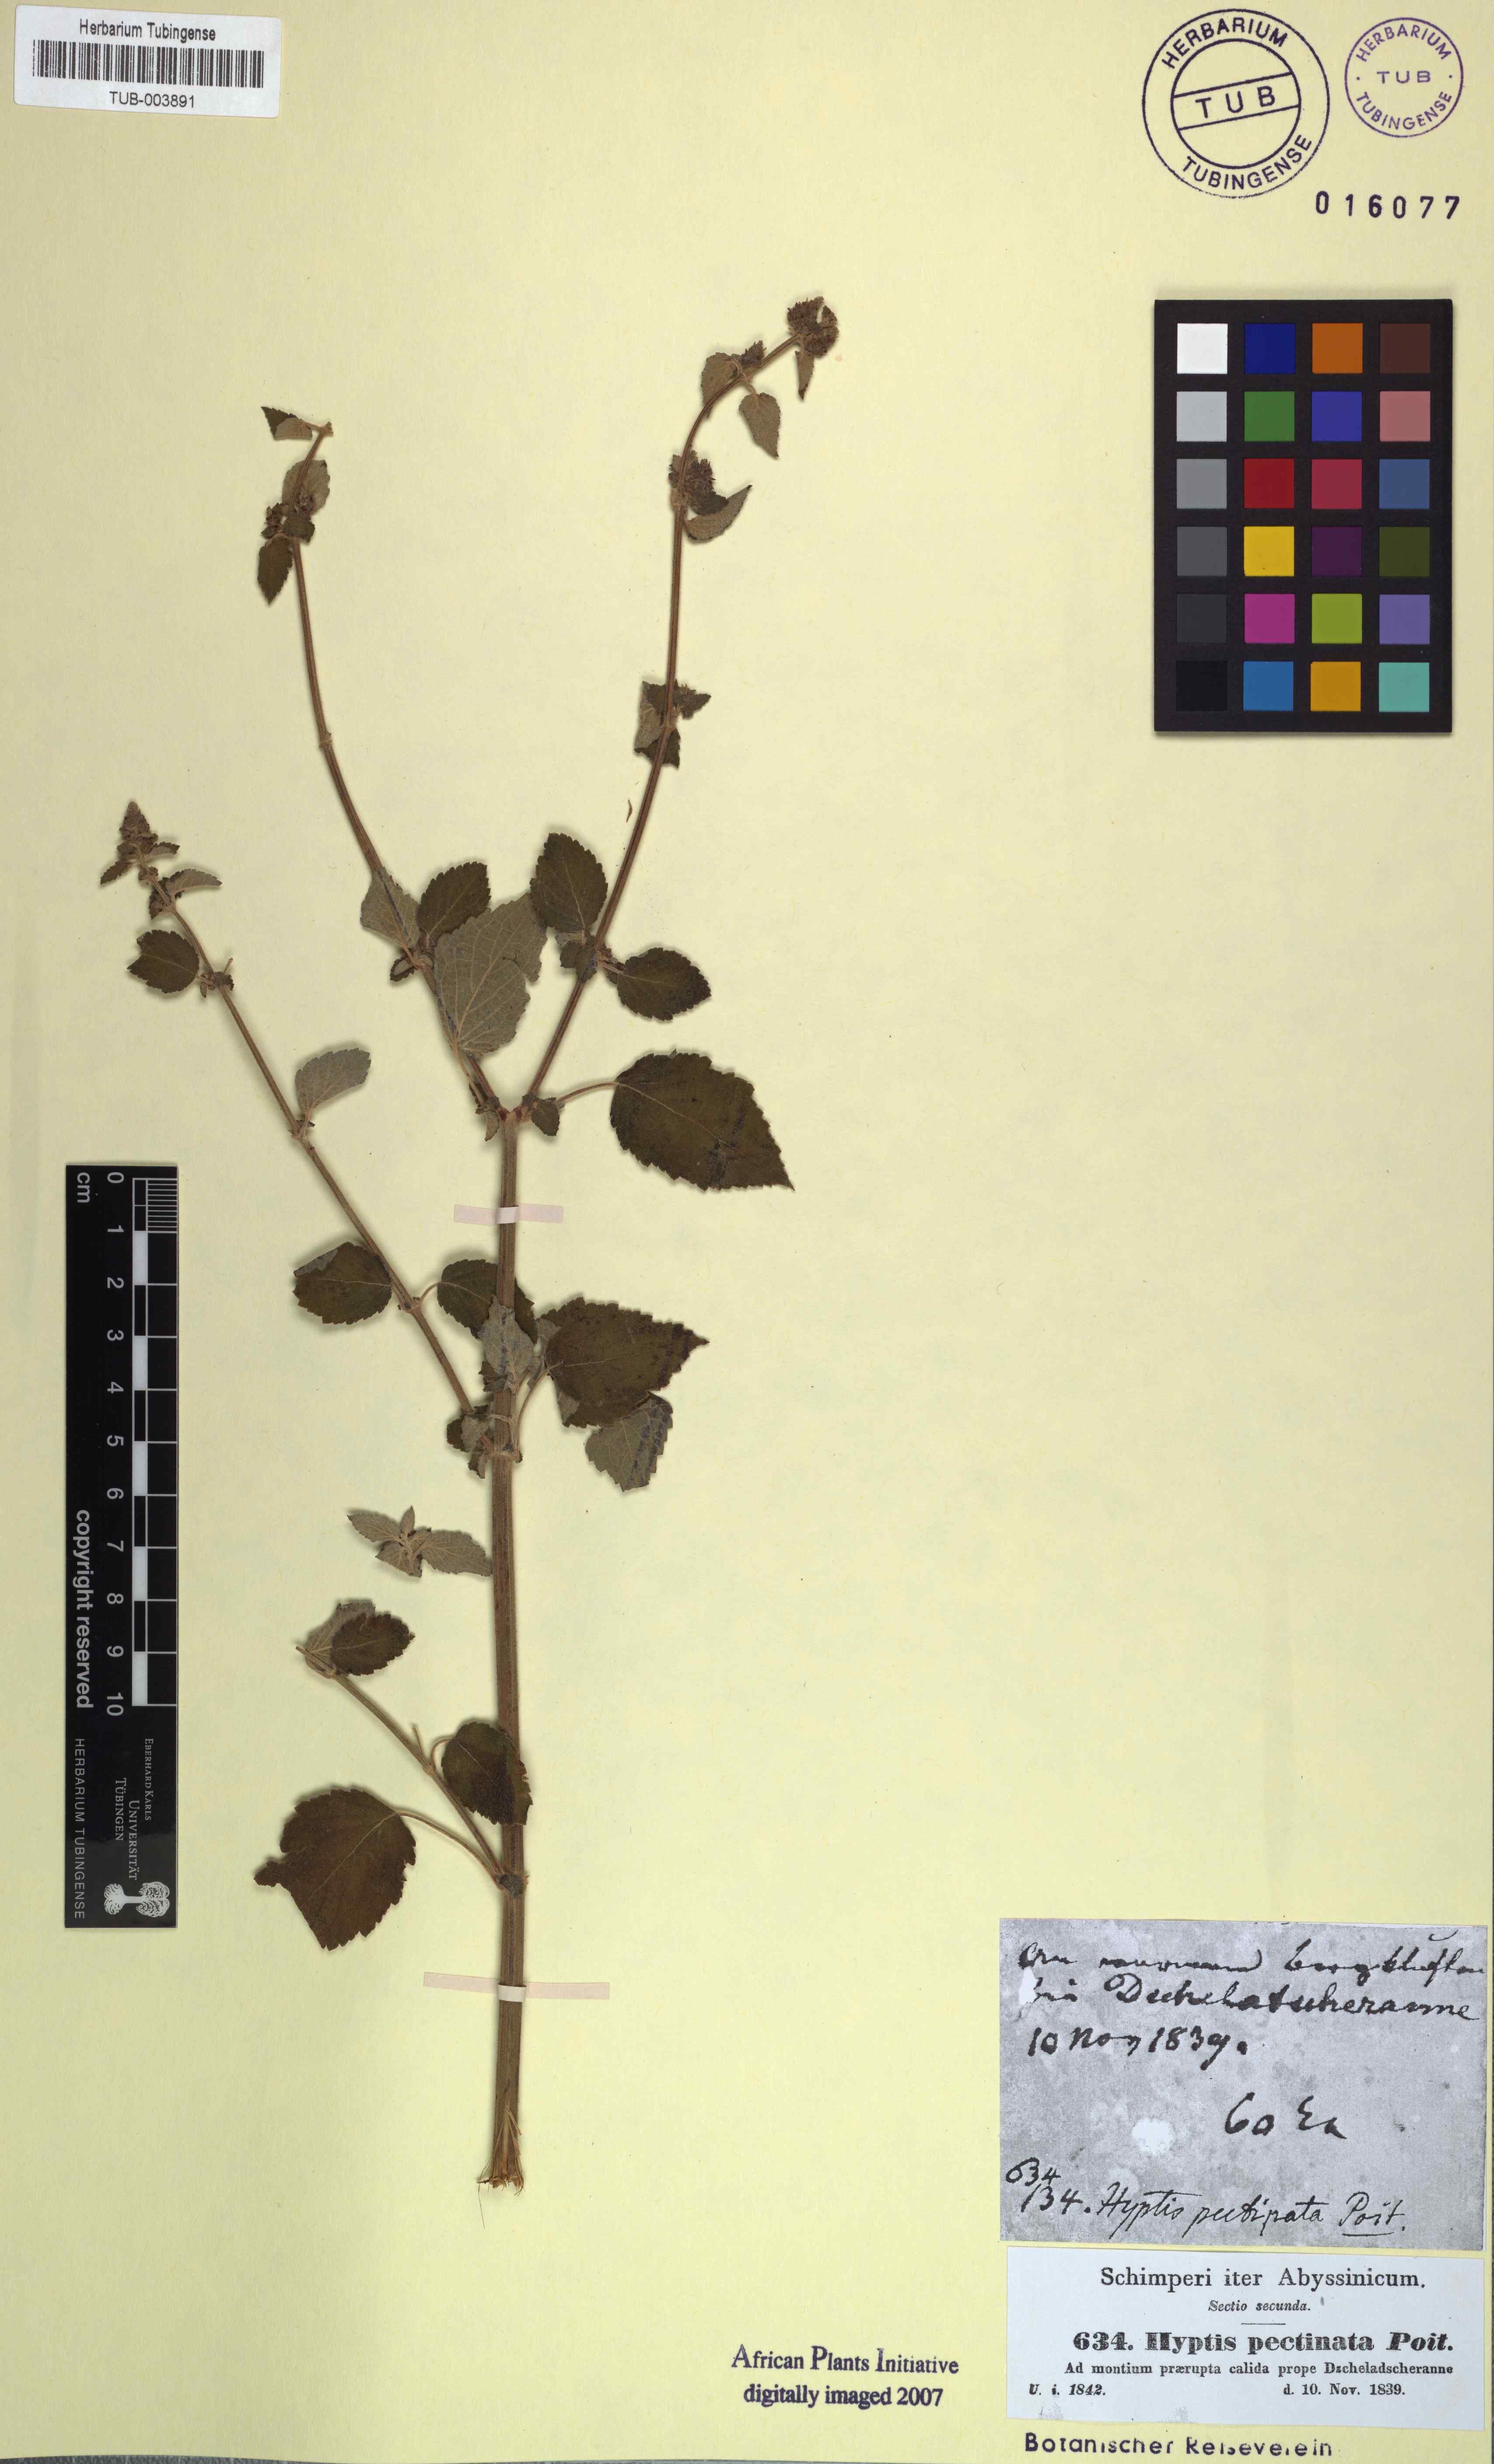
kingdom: Plantae
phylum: Tracheophyta
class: Magnoliopsida
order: Lamiales
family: Lamiaceae
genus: Mesosphaerum
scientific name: Mesosphaerum pectinatum
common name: Comb hyptis
